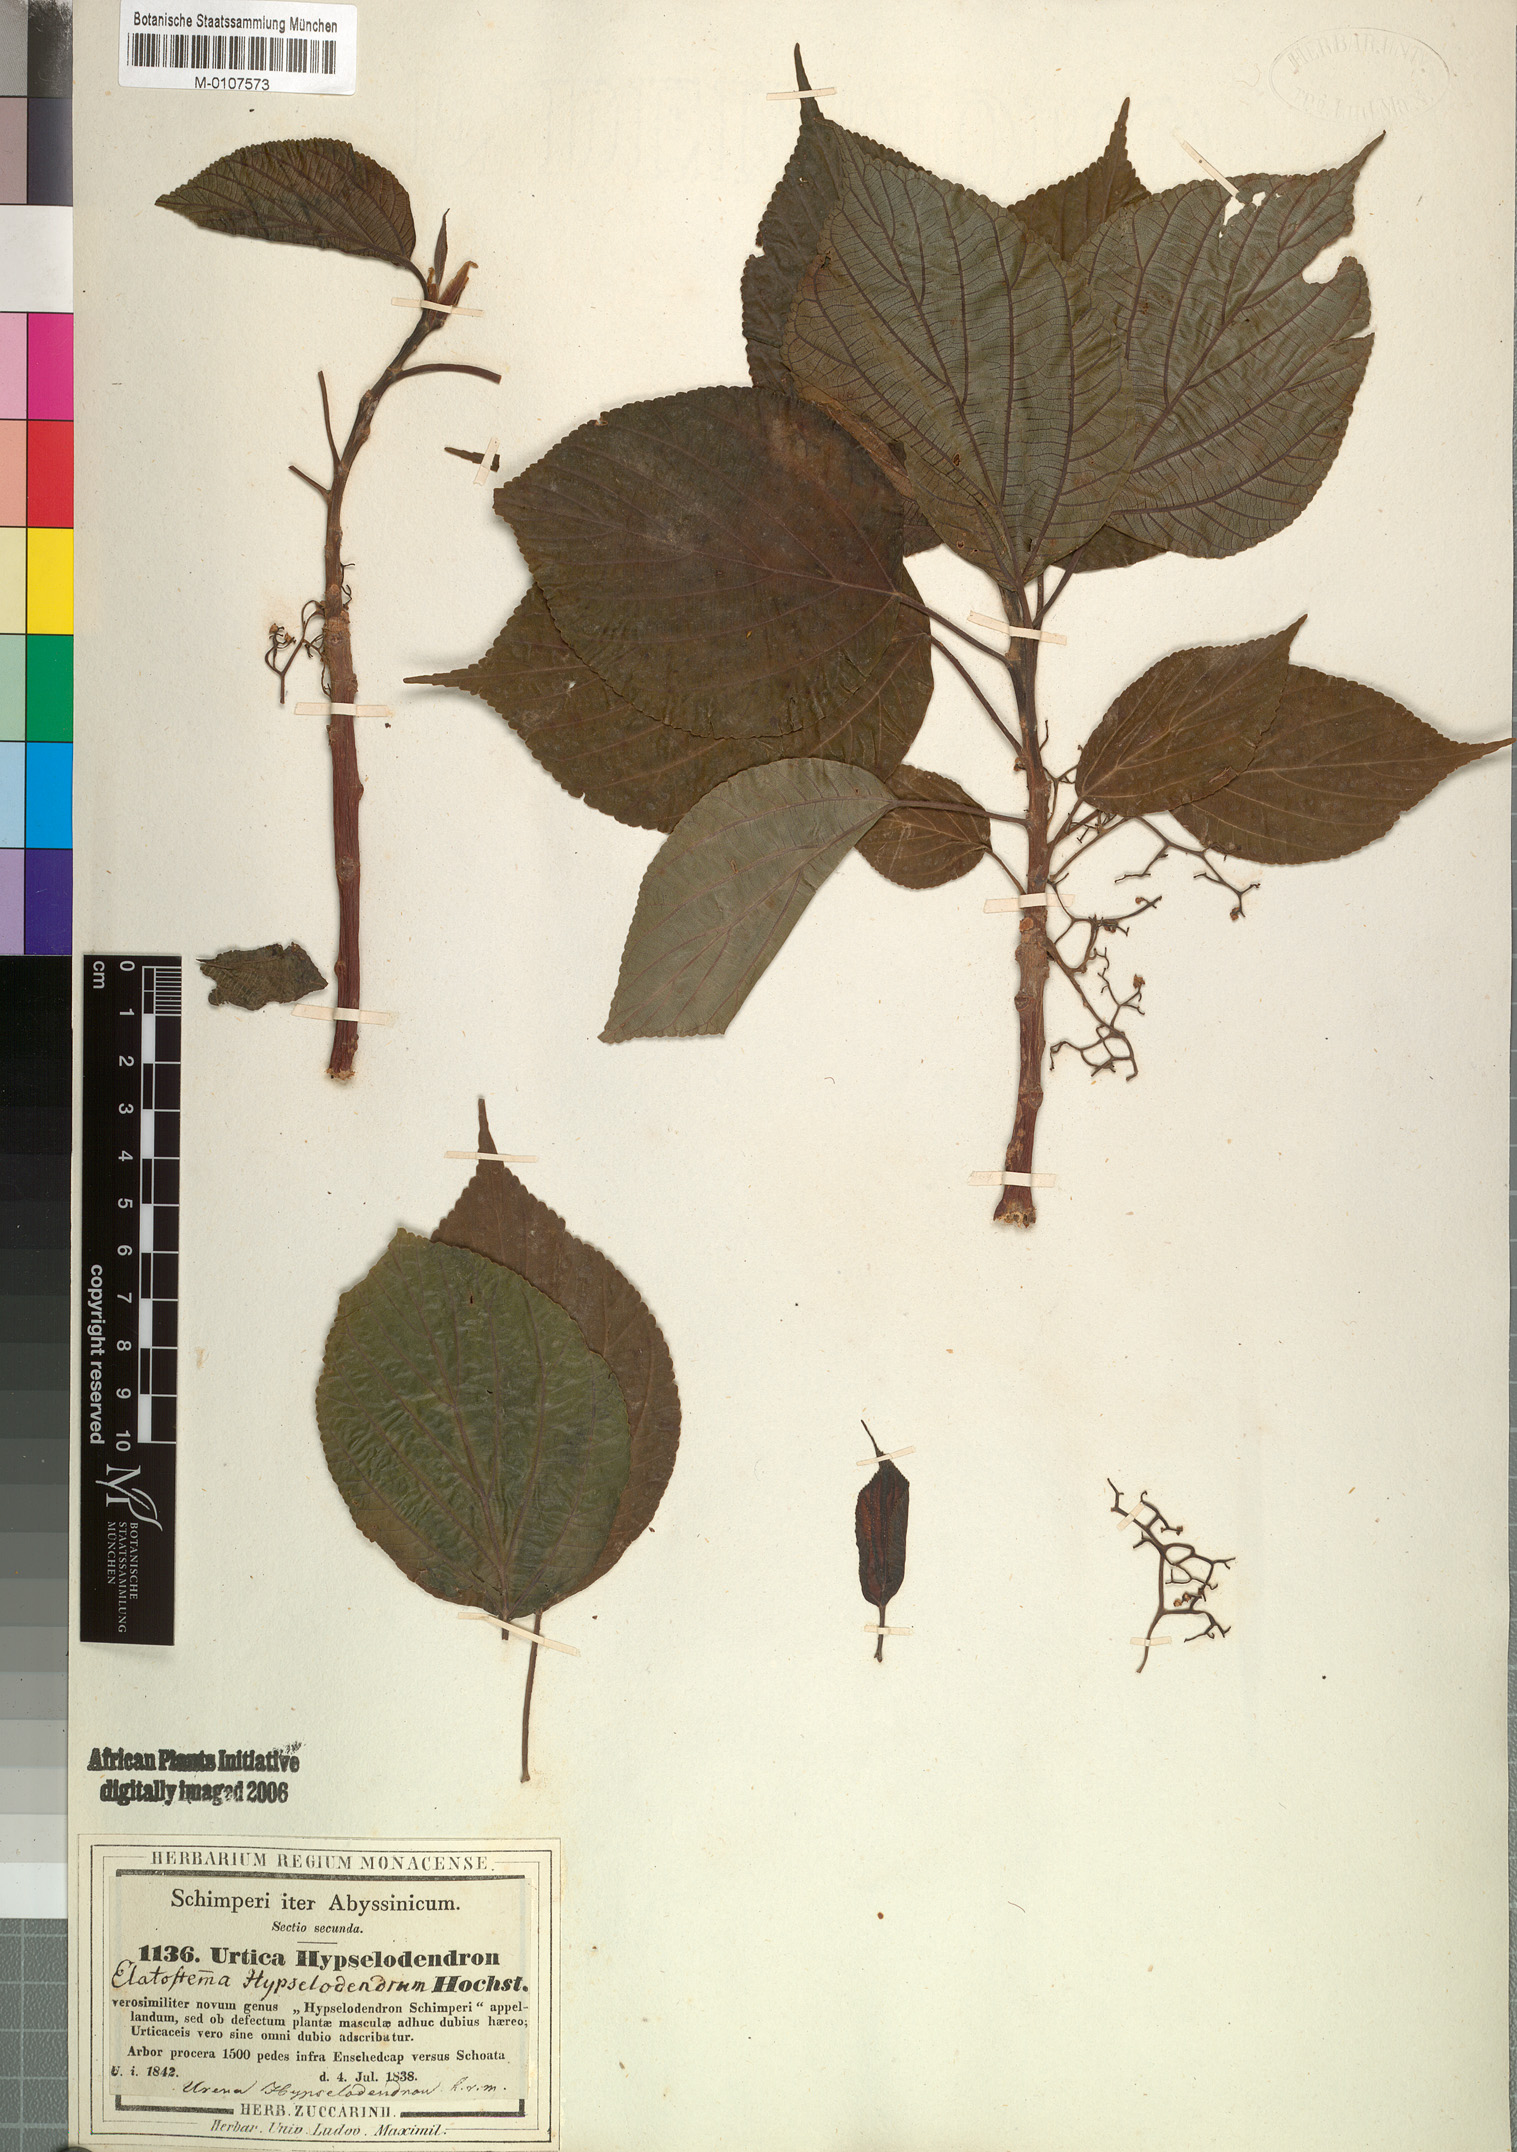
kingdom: Plantae
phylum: Tracheophyta
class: Magnoliopsida
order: Rosales
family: Urticaceae
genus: Scepocarpus
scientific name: Scepocarpus hypselodendron
